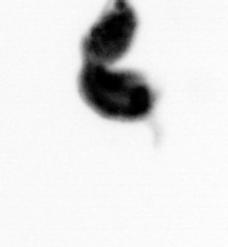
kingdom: Animalia
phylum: Arthropoda
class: Copepoda
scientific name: Copepoda
